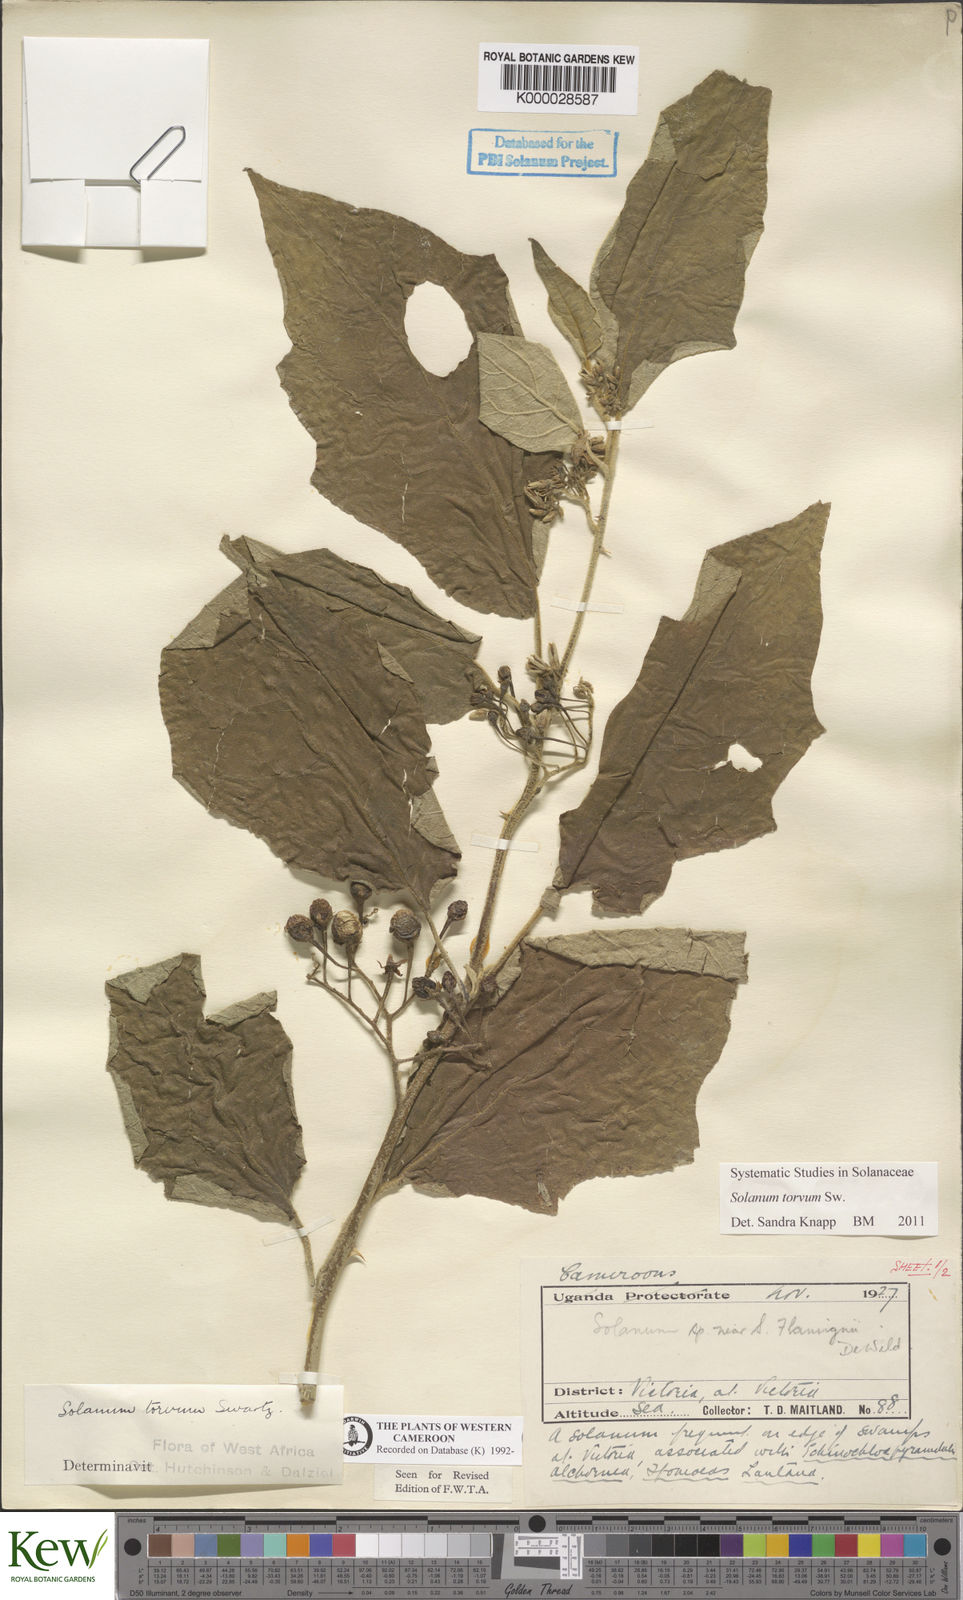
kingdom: Plantae
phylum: Tracheophyta
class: Magnoliopsida
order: Solanales
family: Solanaceae
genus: Solanum
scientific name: Solanum torvum
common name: Turkey berry
